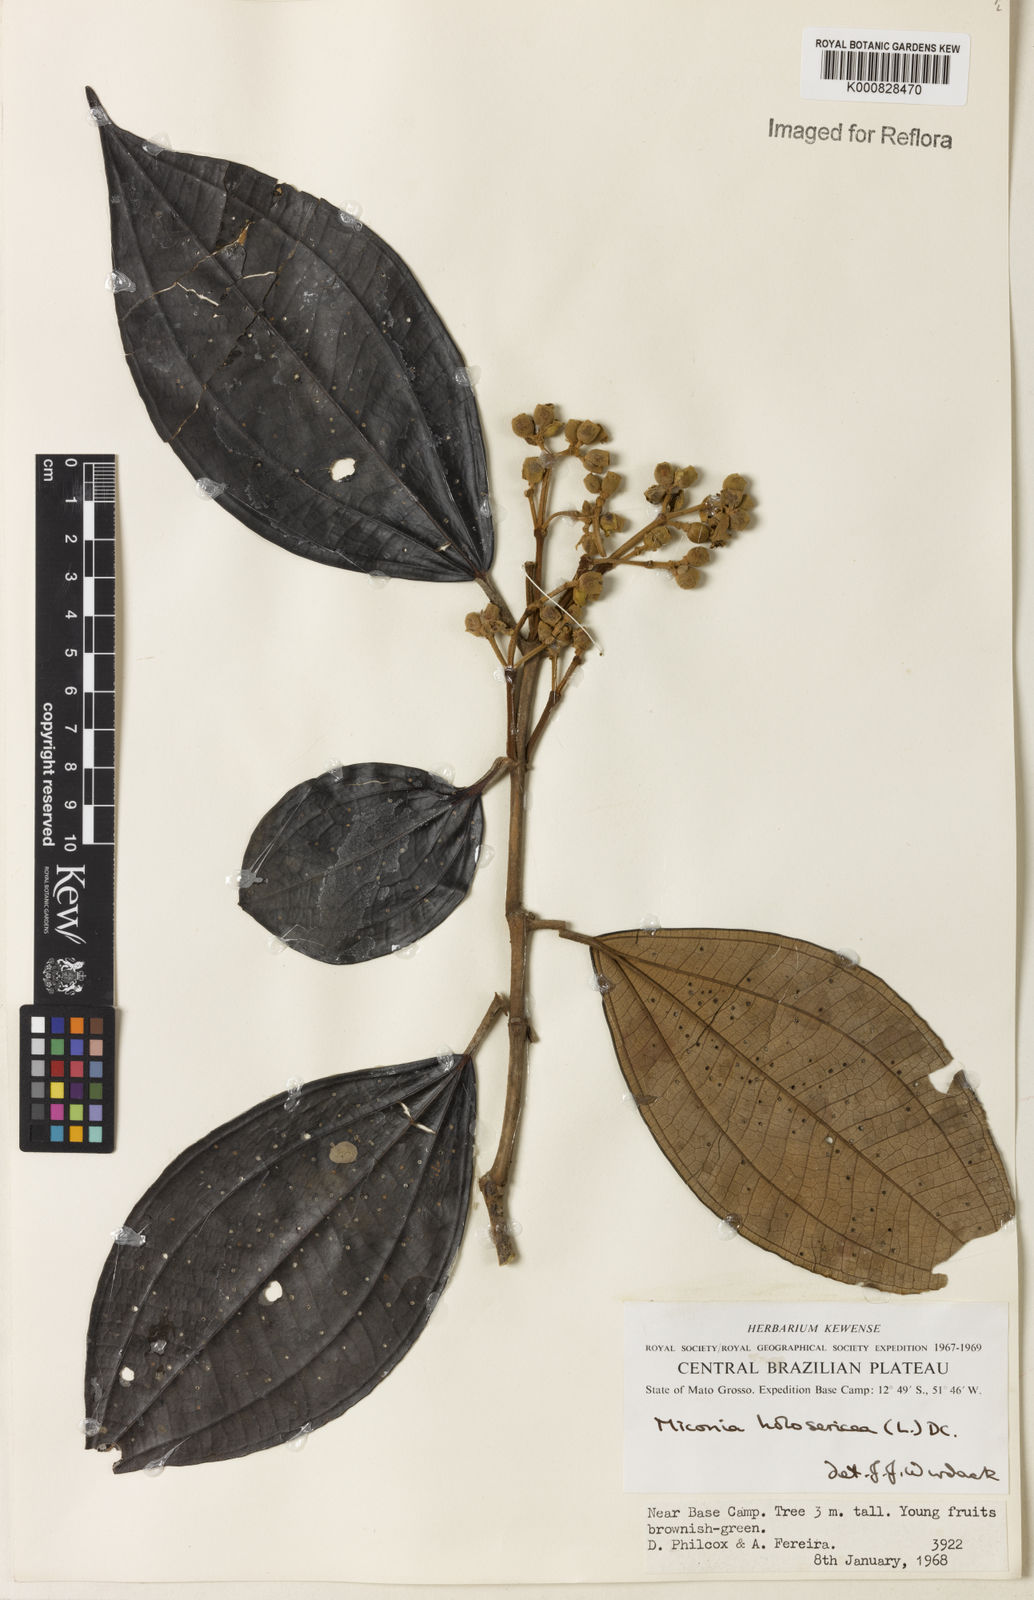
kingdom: Plantae
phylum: Tracheophyta
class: Magnoliopsida
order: Myrtales
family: Melastomataceae
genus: Miconia
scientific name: Miconia holosericea
